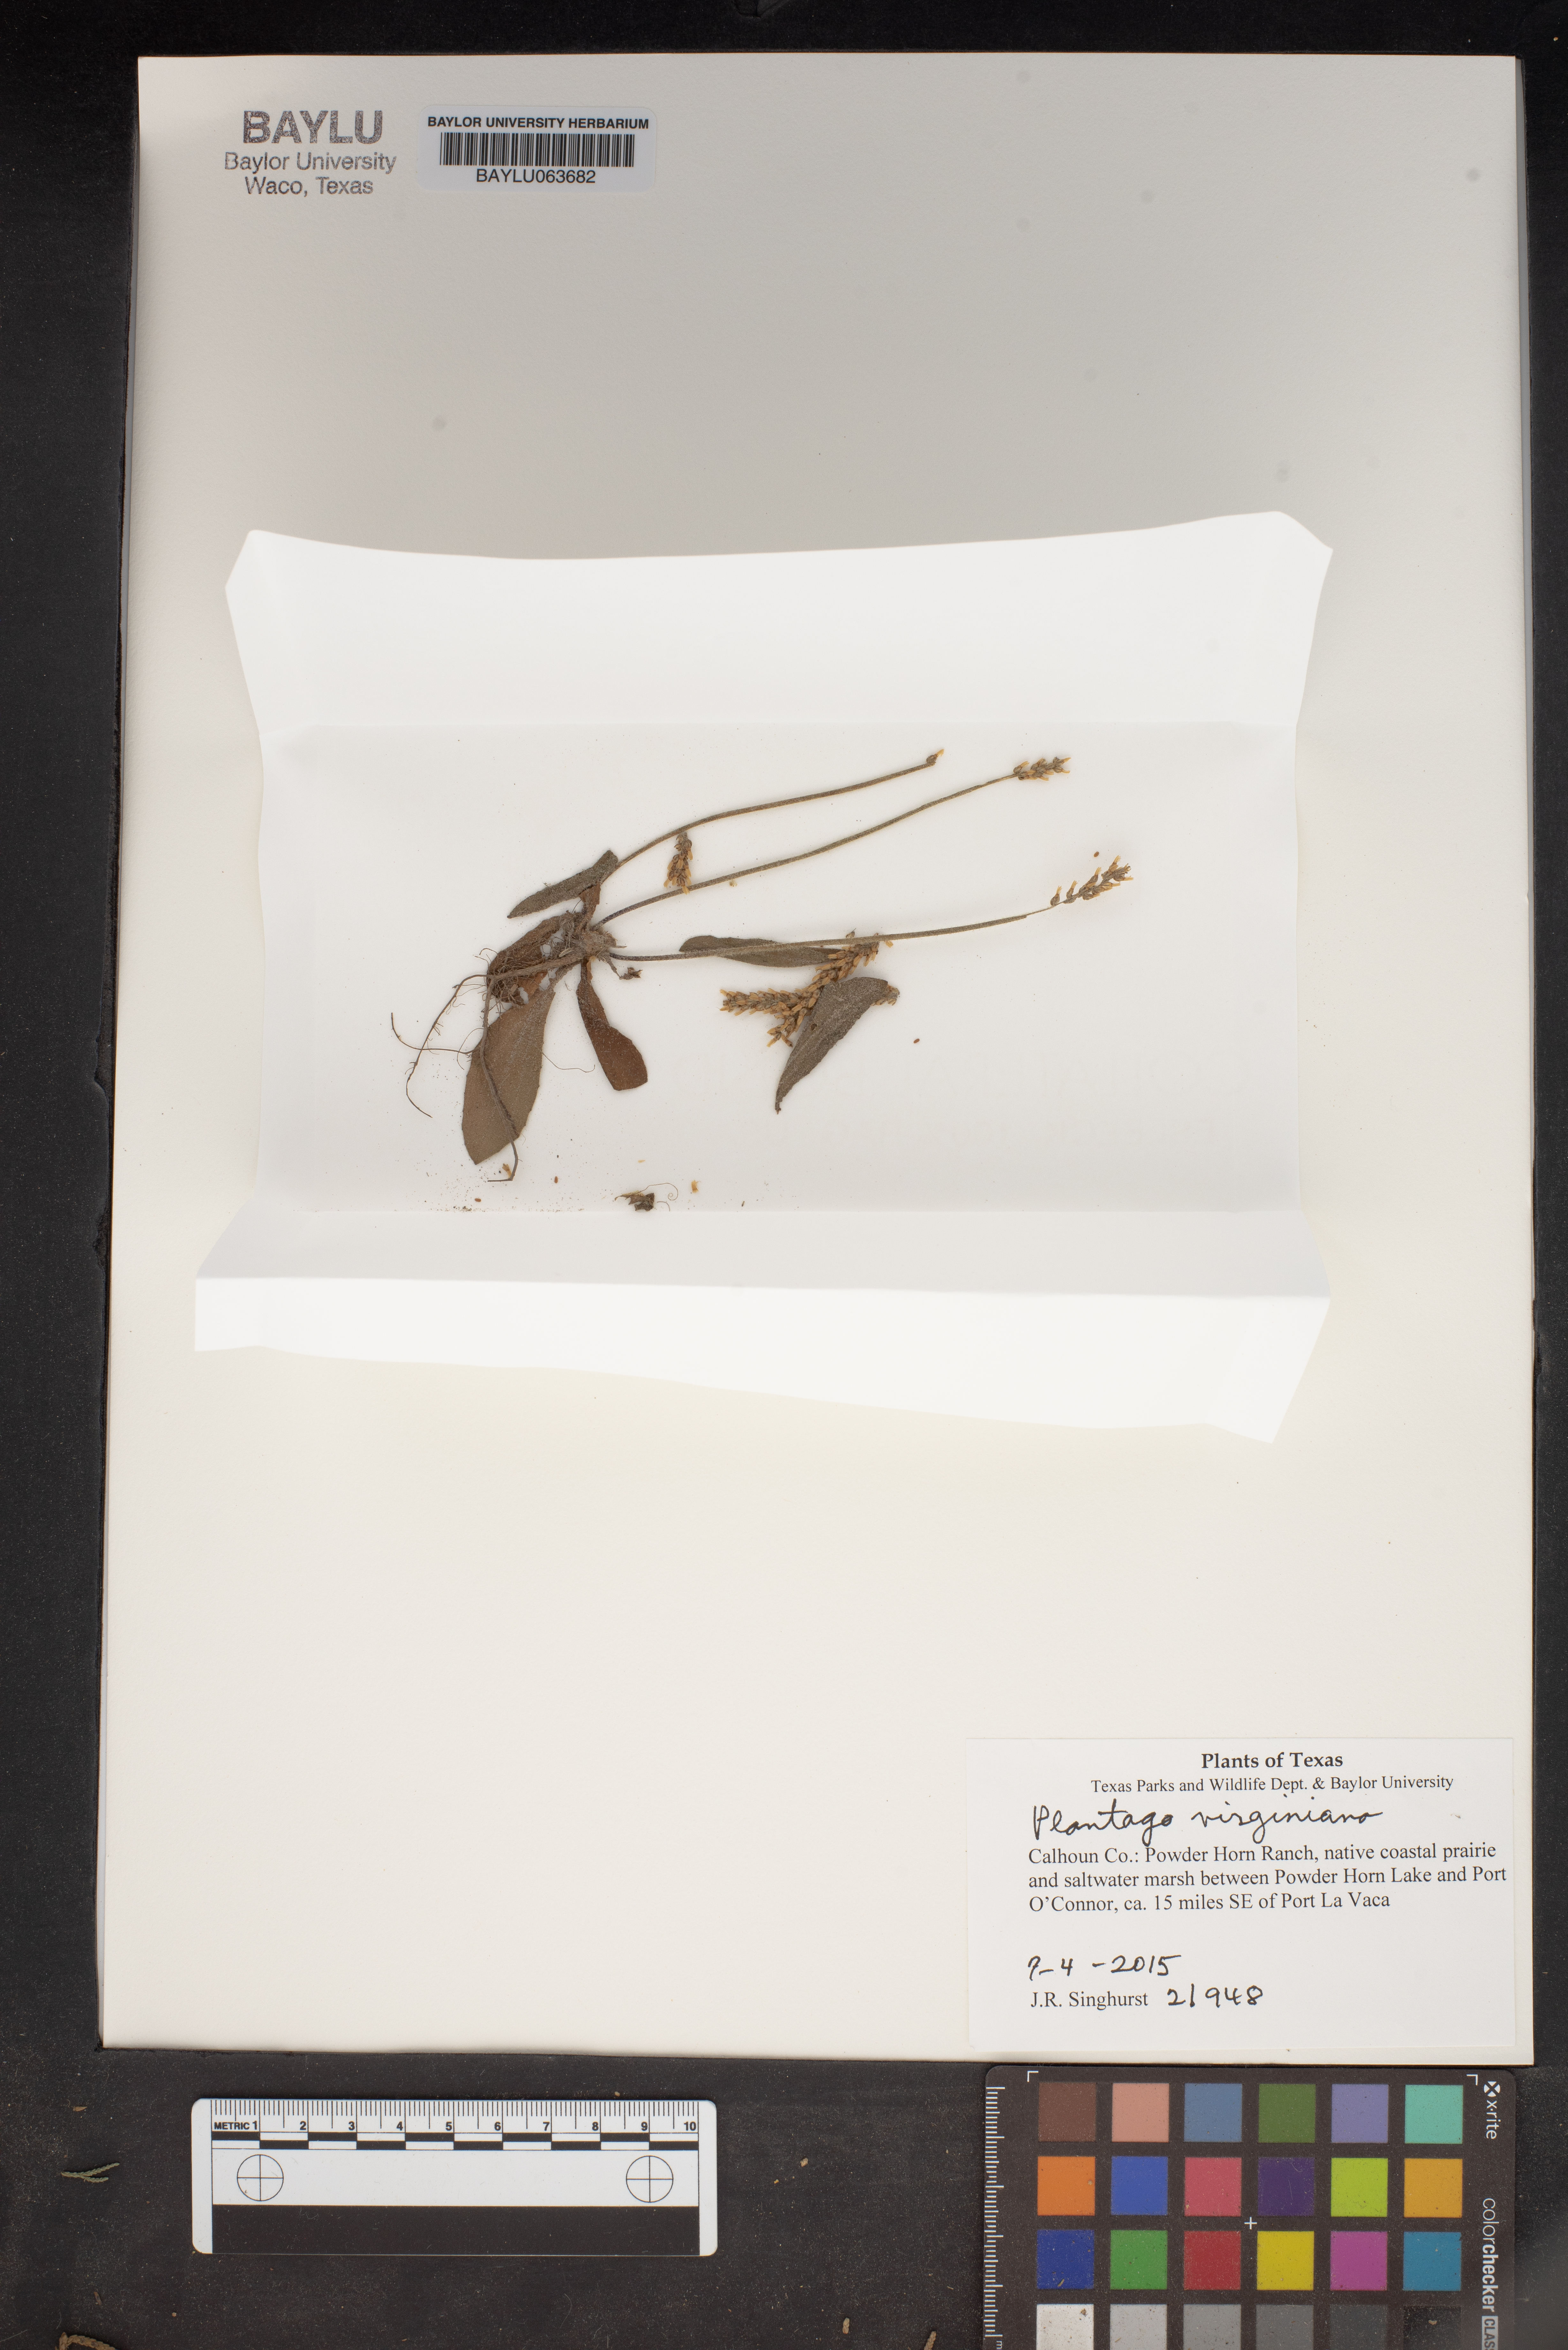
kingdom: Plantae
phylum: Tracheophyta
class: Magnoliopsida
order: Lamiales
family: Plantaginaceae
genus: Plantago
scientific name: Plantago virginica
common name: Hoary plantain
